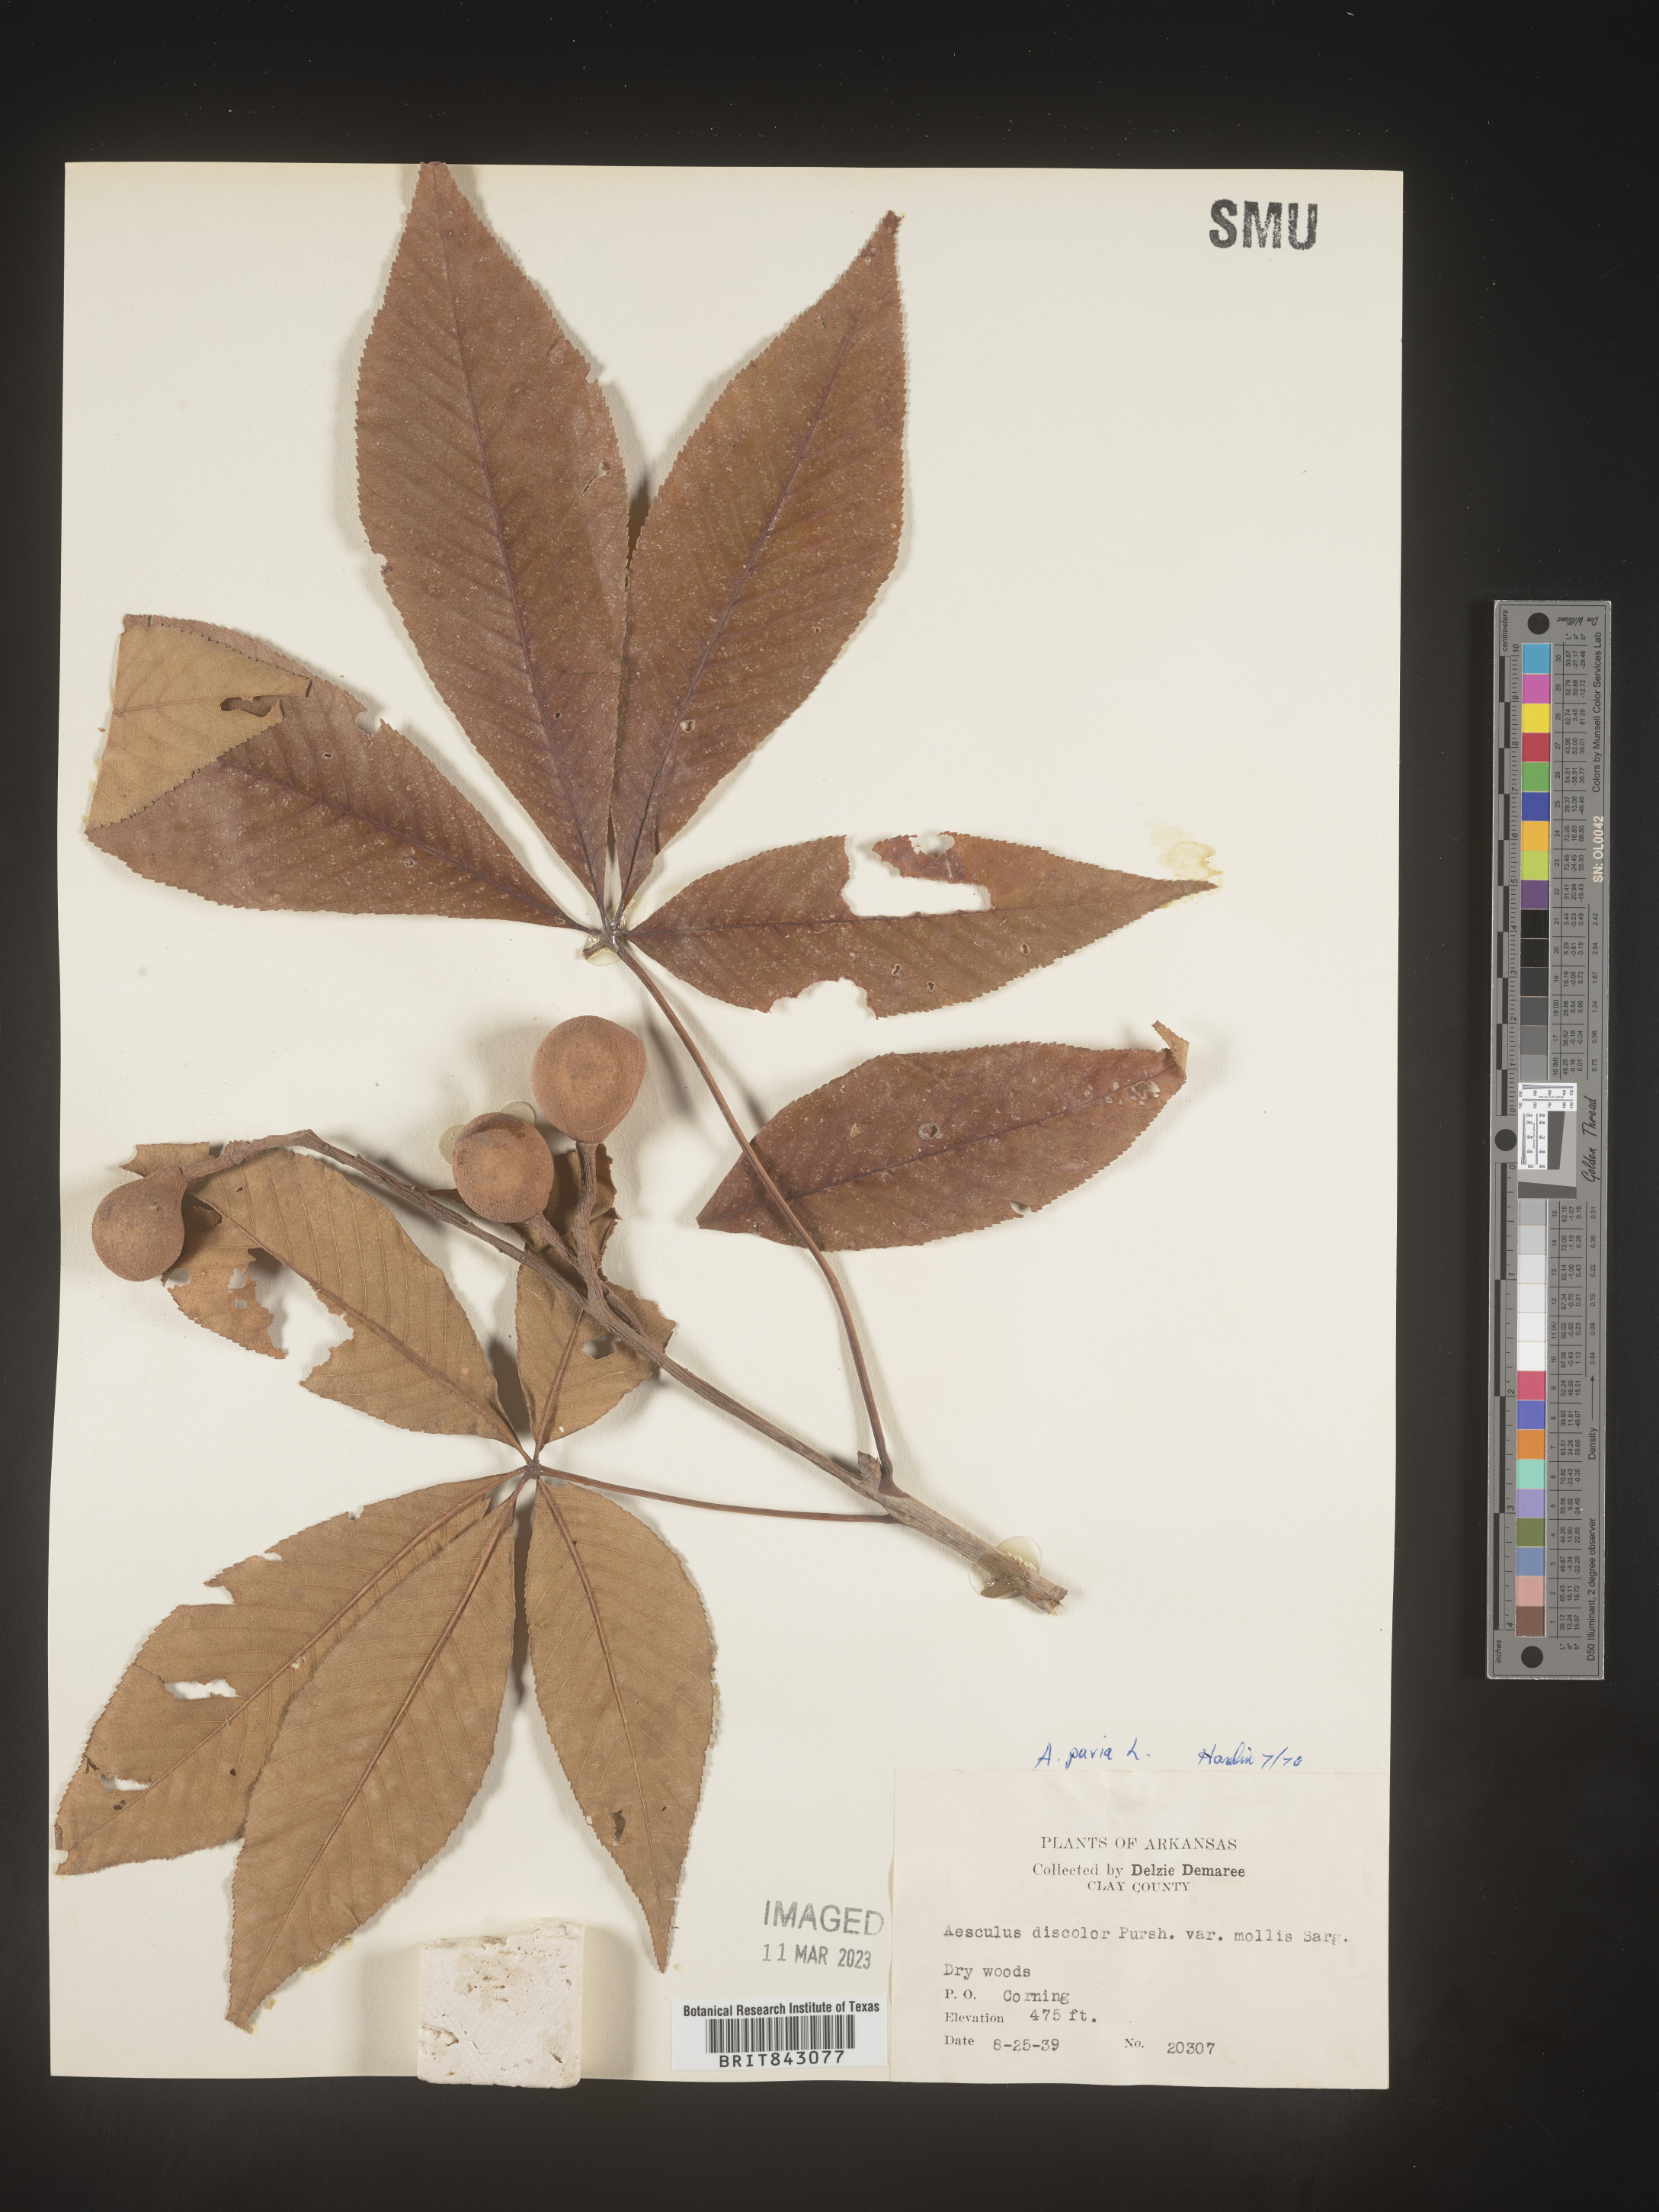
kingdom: Plantae
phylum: Tracheophyta
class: Magnoliopsida
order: Sapindales
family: Sapindaceae
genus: Aesculus
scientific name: Aesculus pavia
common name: Red buckeye
